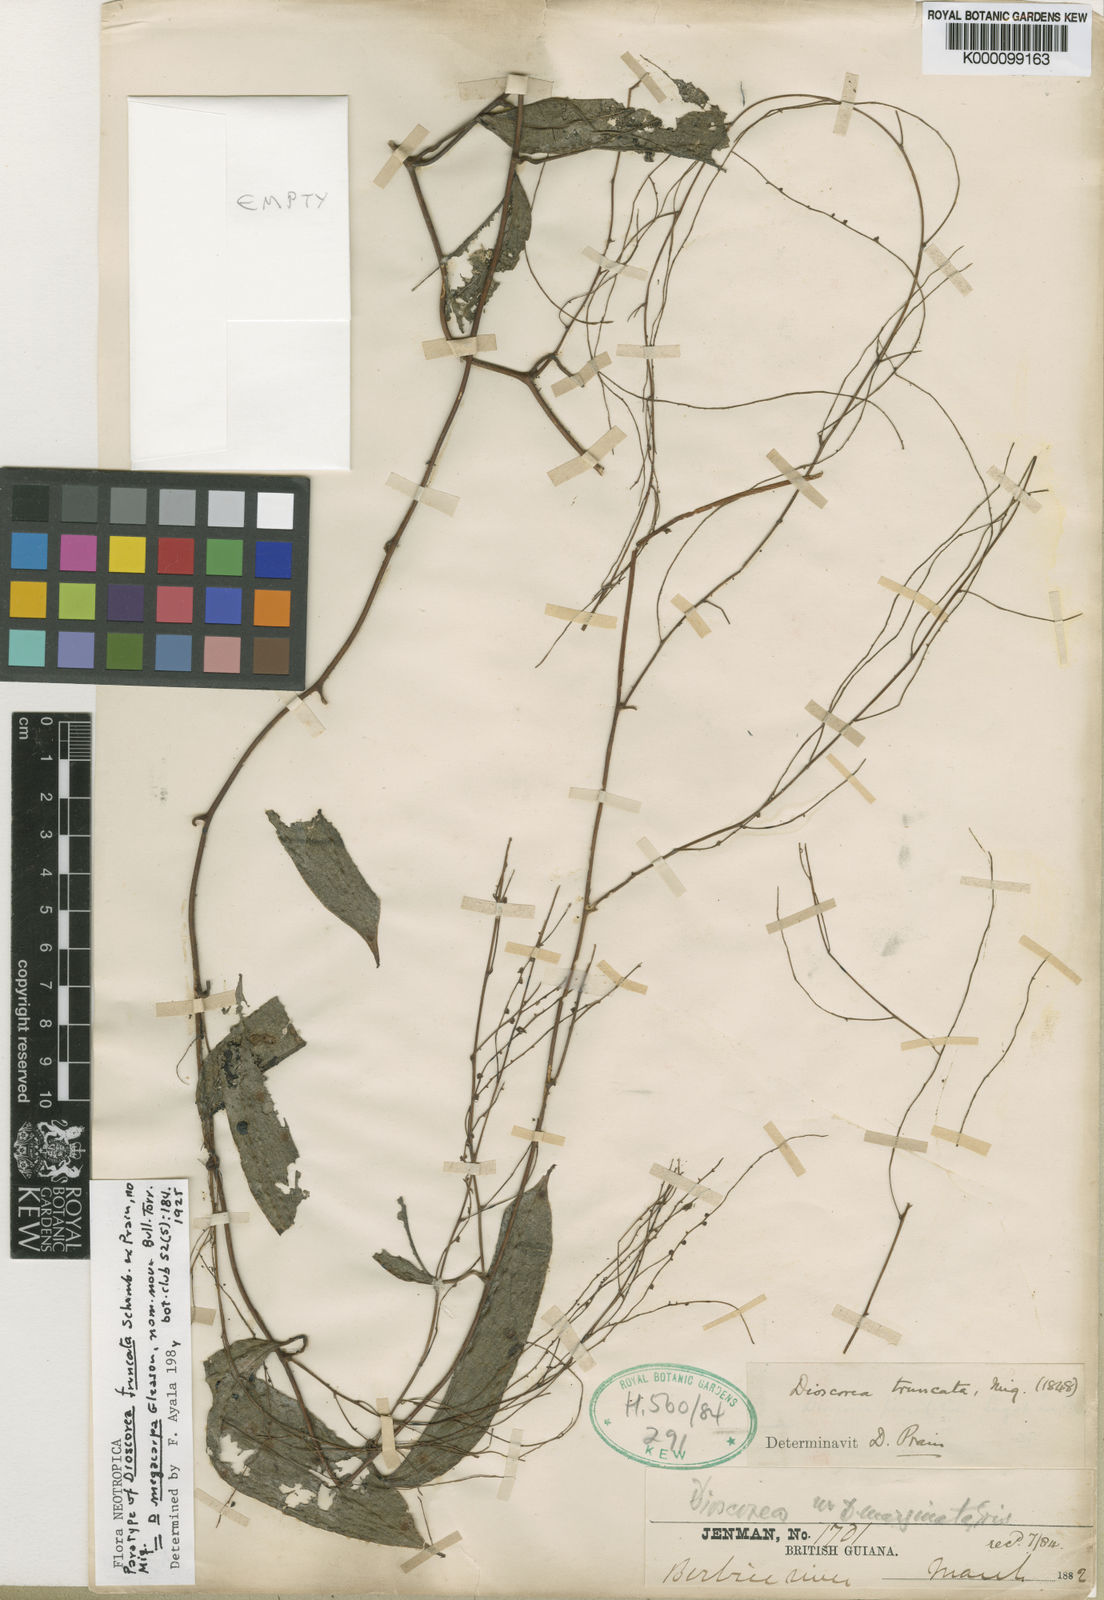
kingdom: Plantae
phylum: Tracheophyta
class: Liliopsida
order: Dioscoreales
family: Dioscoreaceae
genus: Dioscorea
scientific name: Dioscorea melastomatifolia
